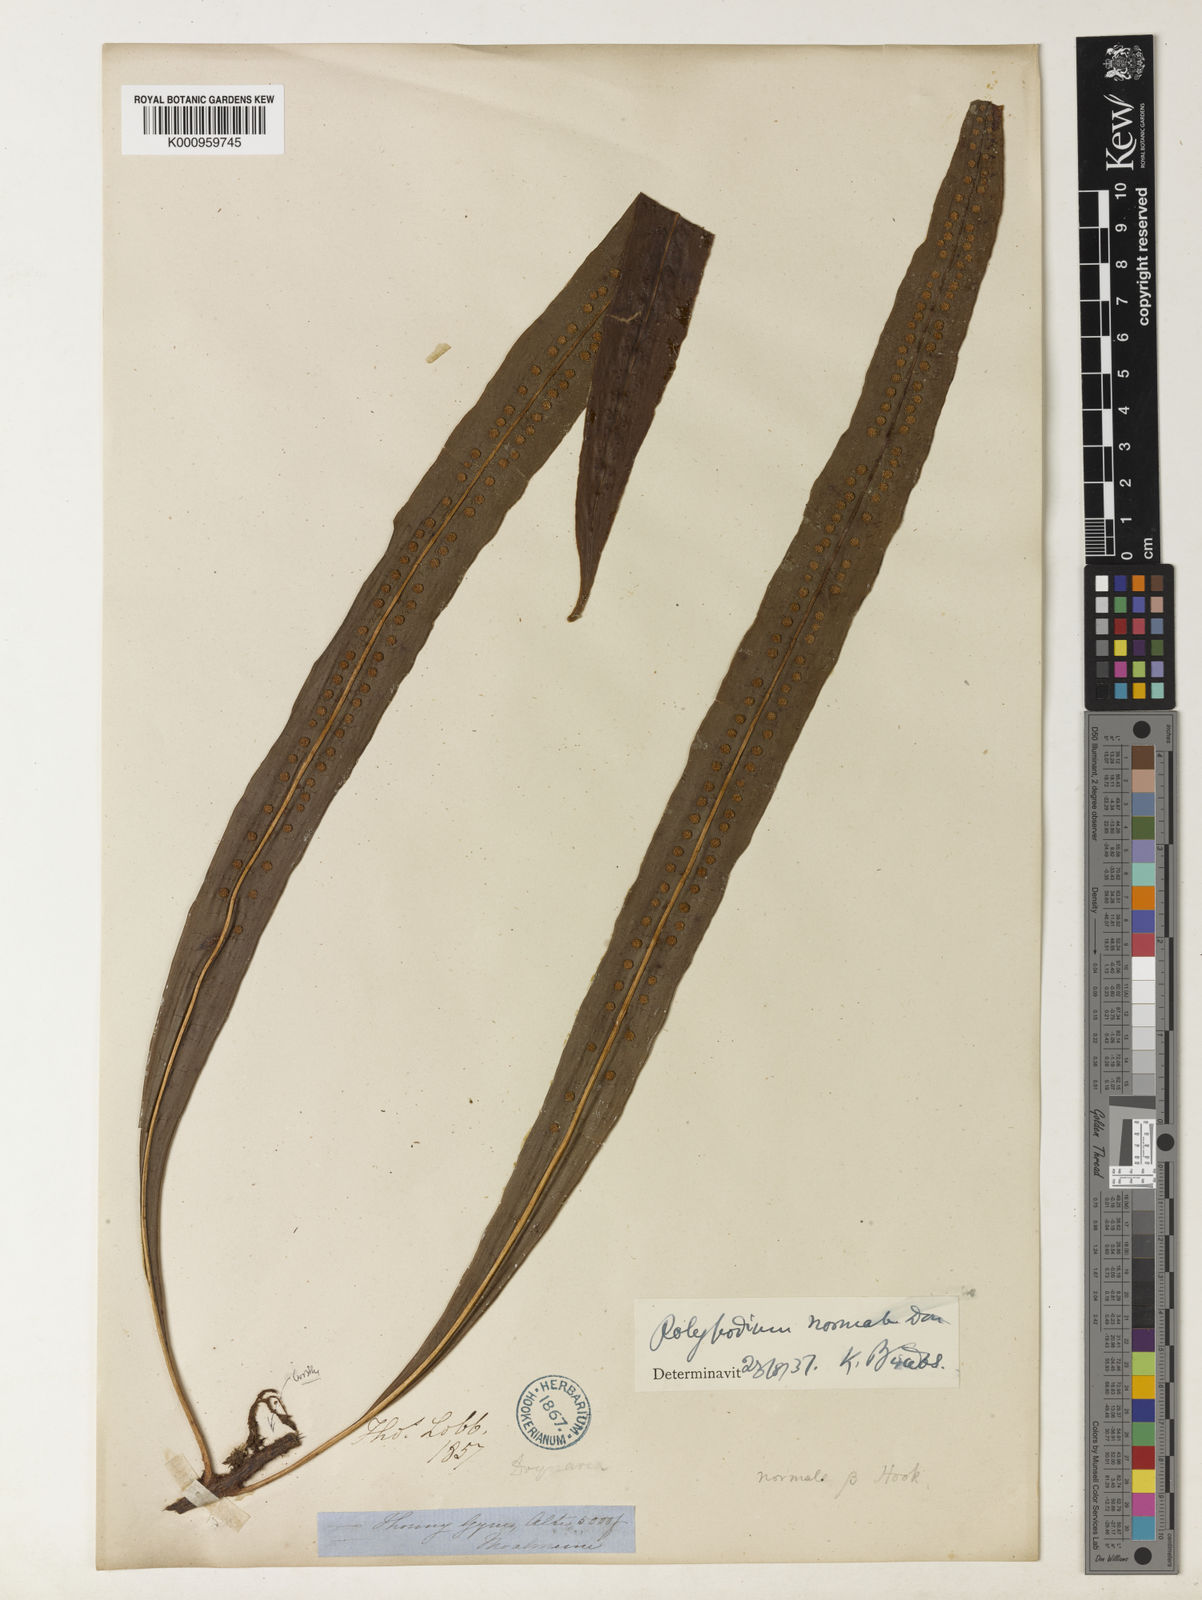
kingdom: Plantae
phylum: Tracheophyta
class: Polypodiopsida
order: Polypodiales
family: Polypodiaceae
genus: Lepisorus
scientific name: Lepisorus normalis
